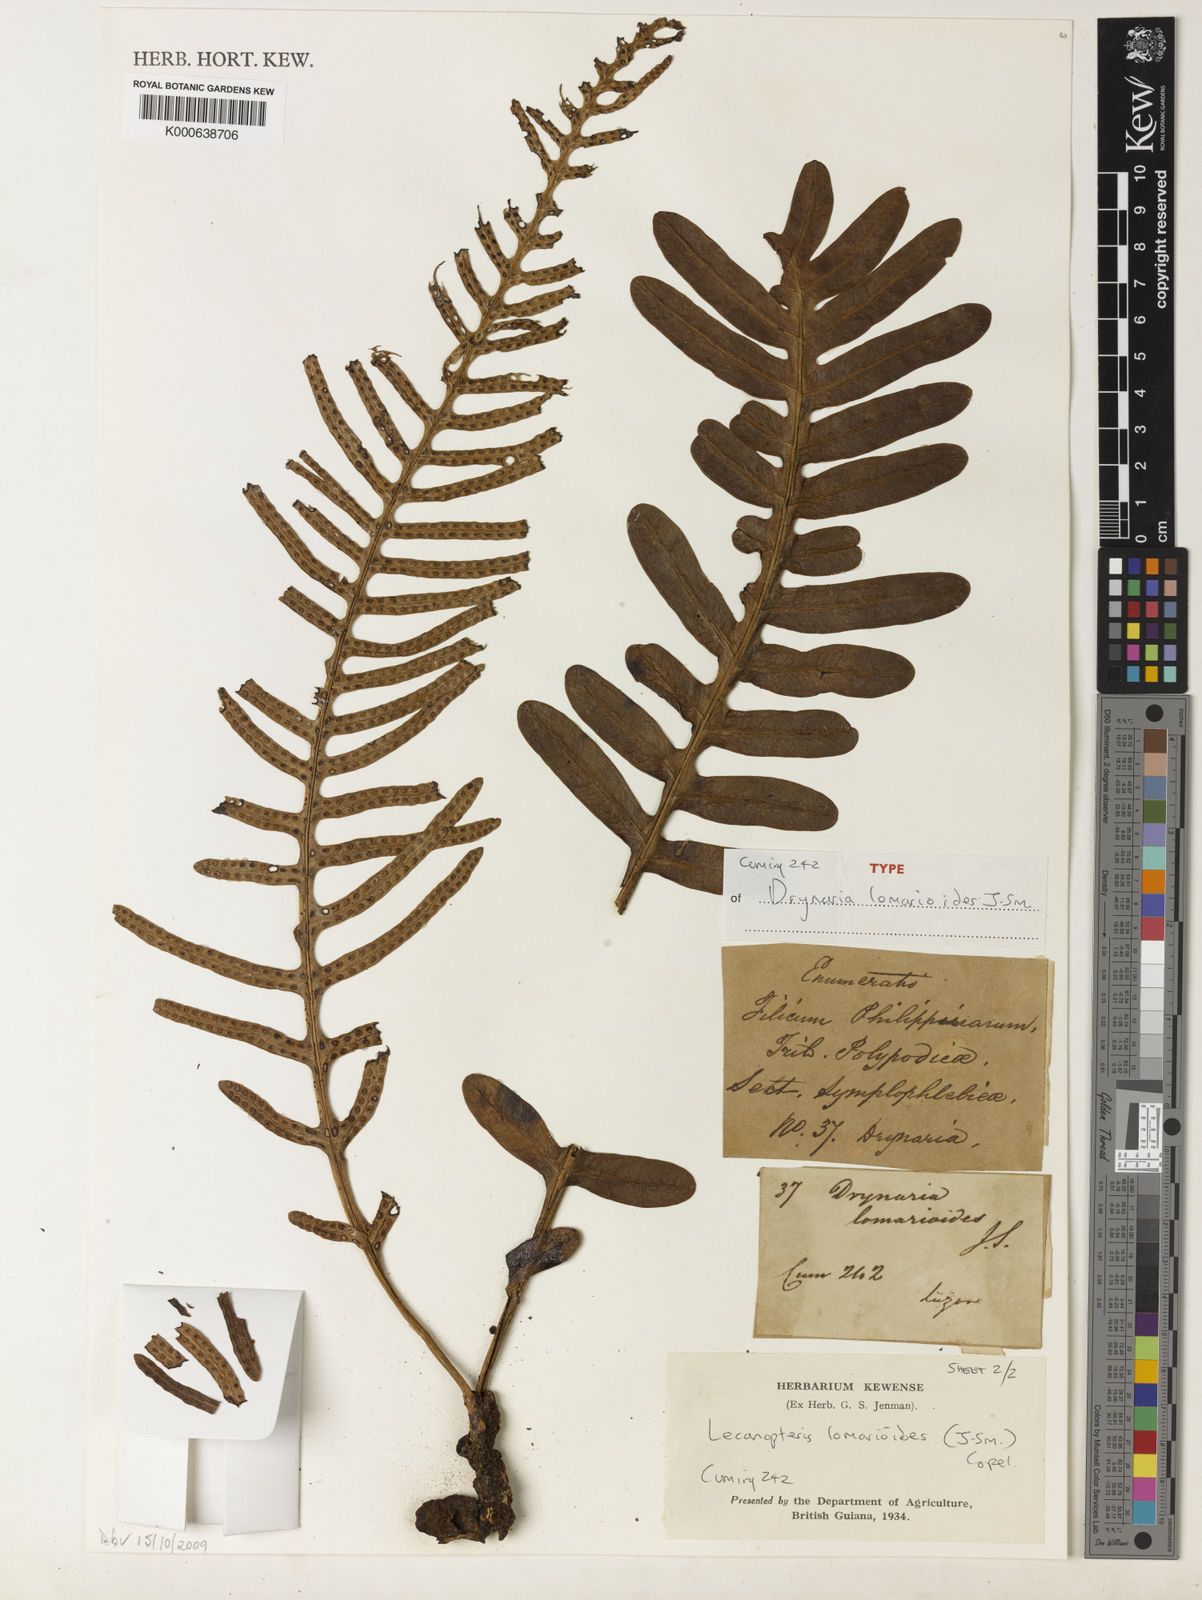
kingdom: Plantae
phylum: Tracheophyta
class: Polypodiopsida
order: Polypodiales
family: Polypodiaceae
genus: Lecanopteris
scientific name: Lecanopteris sarcopus
